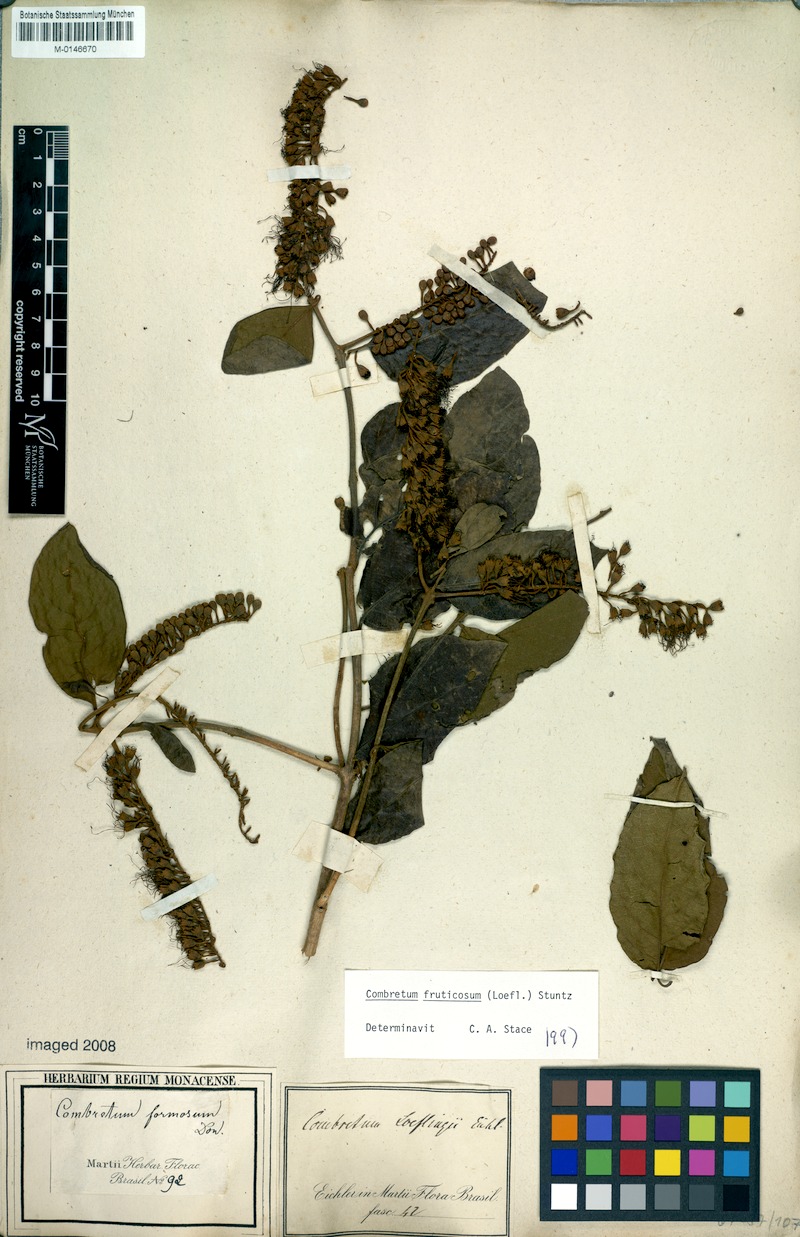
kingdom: Plantae
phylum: Tracheophyta
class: Magnoliopsida
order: Myrtales
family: Combretaceae
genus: Combretum
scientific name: Combretum fruticosum
